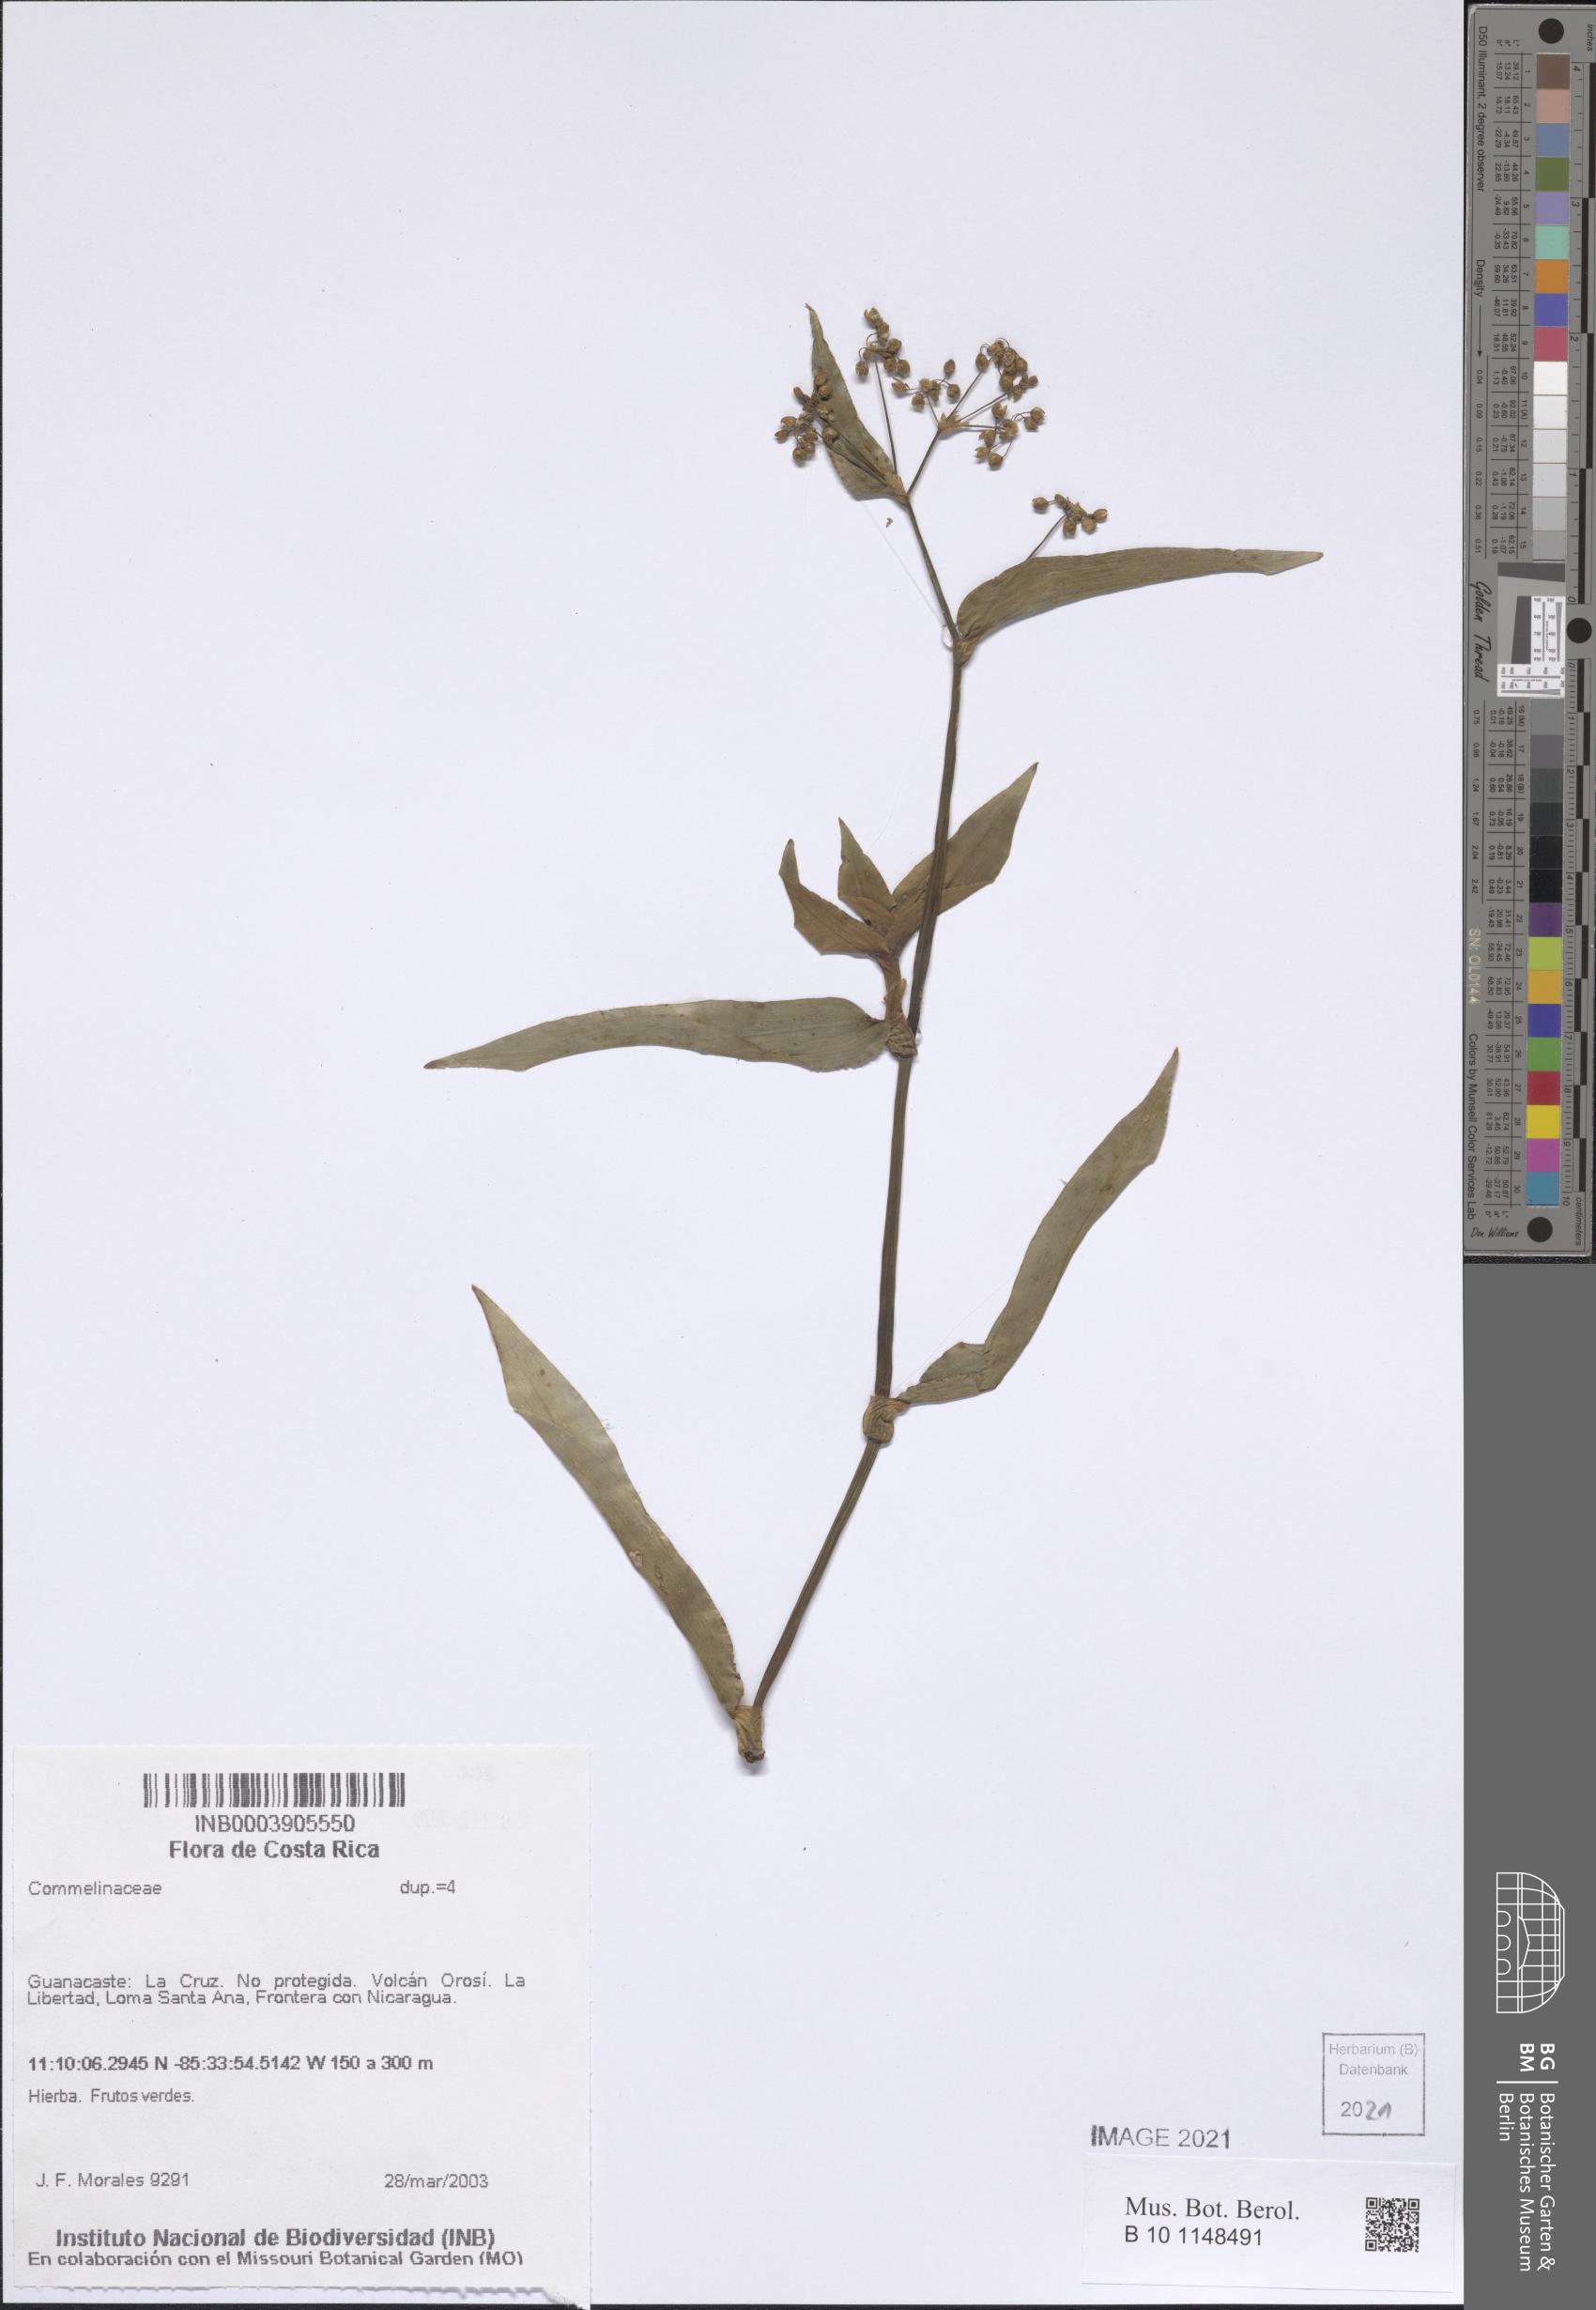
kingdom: Plantae
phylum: Tracheophyta
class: Liliopsida
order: Commelinales
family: Commelinaceae
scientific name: Commelinaceae
